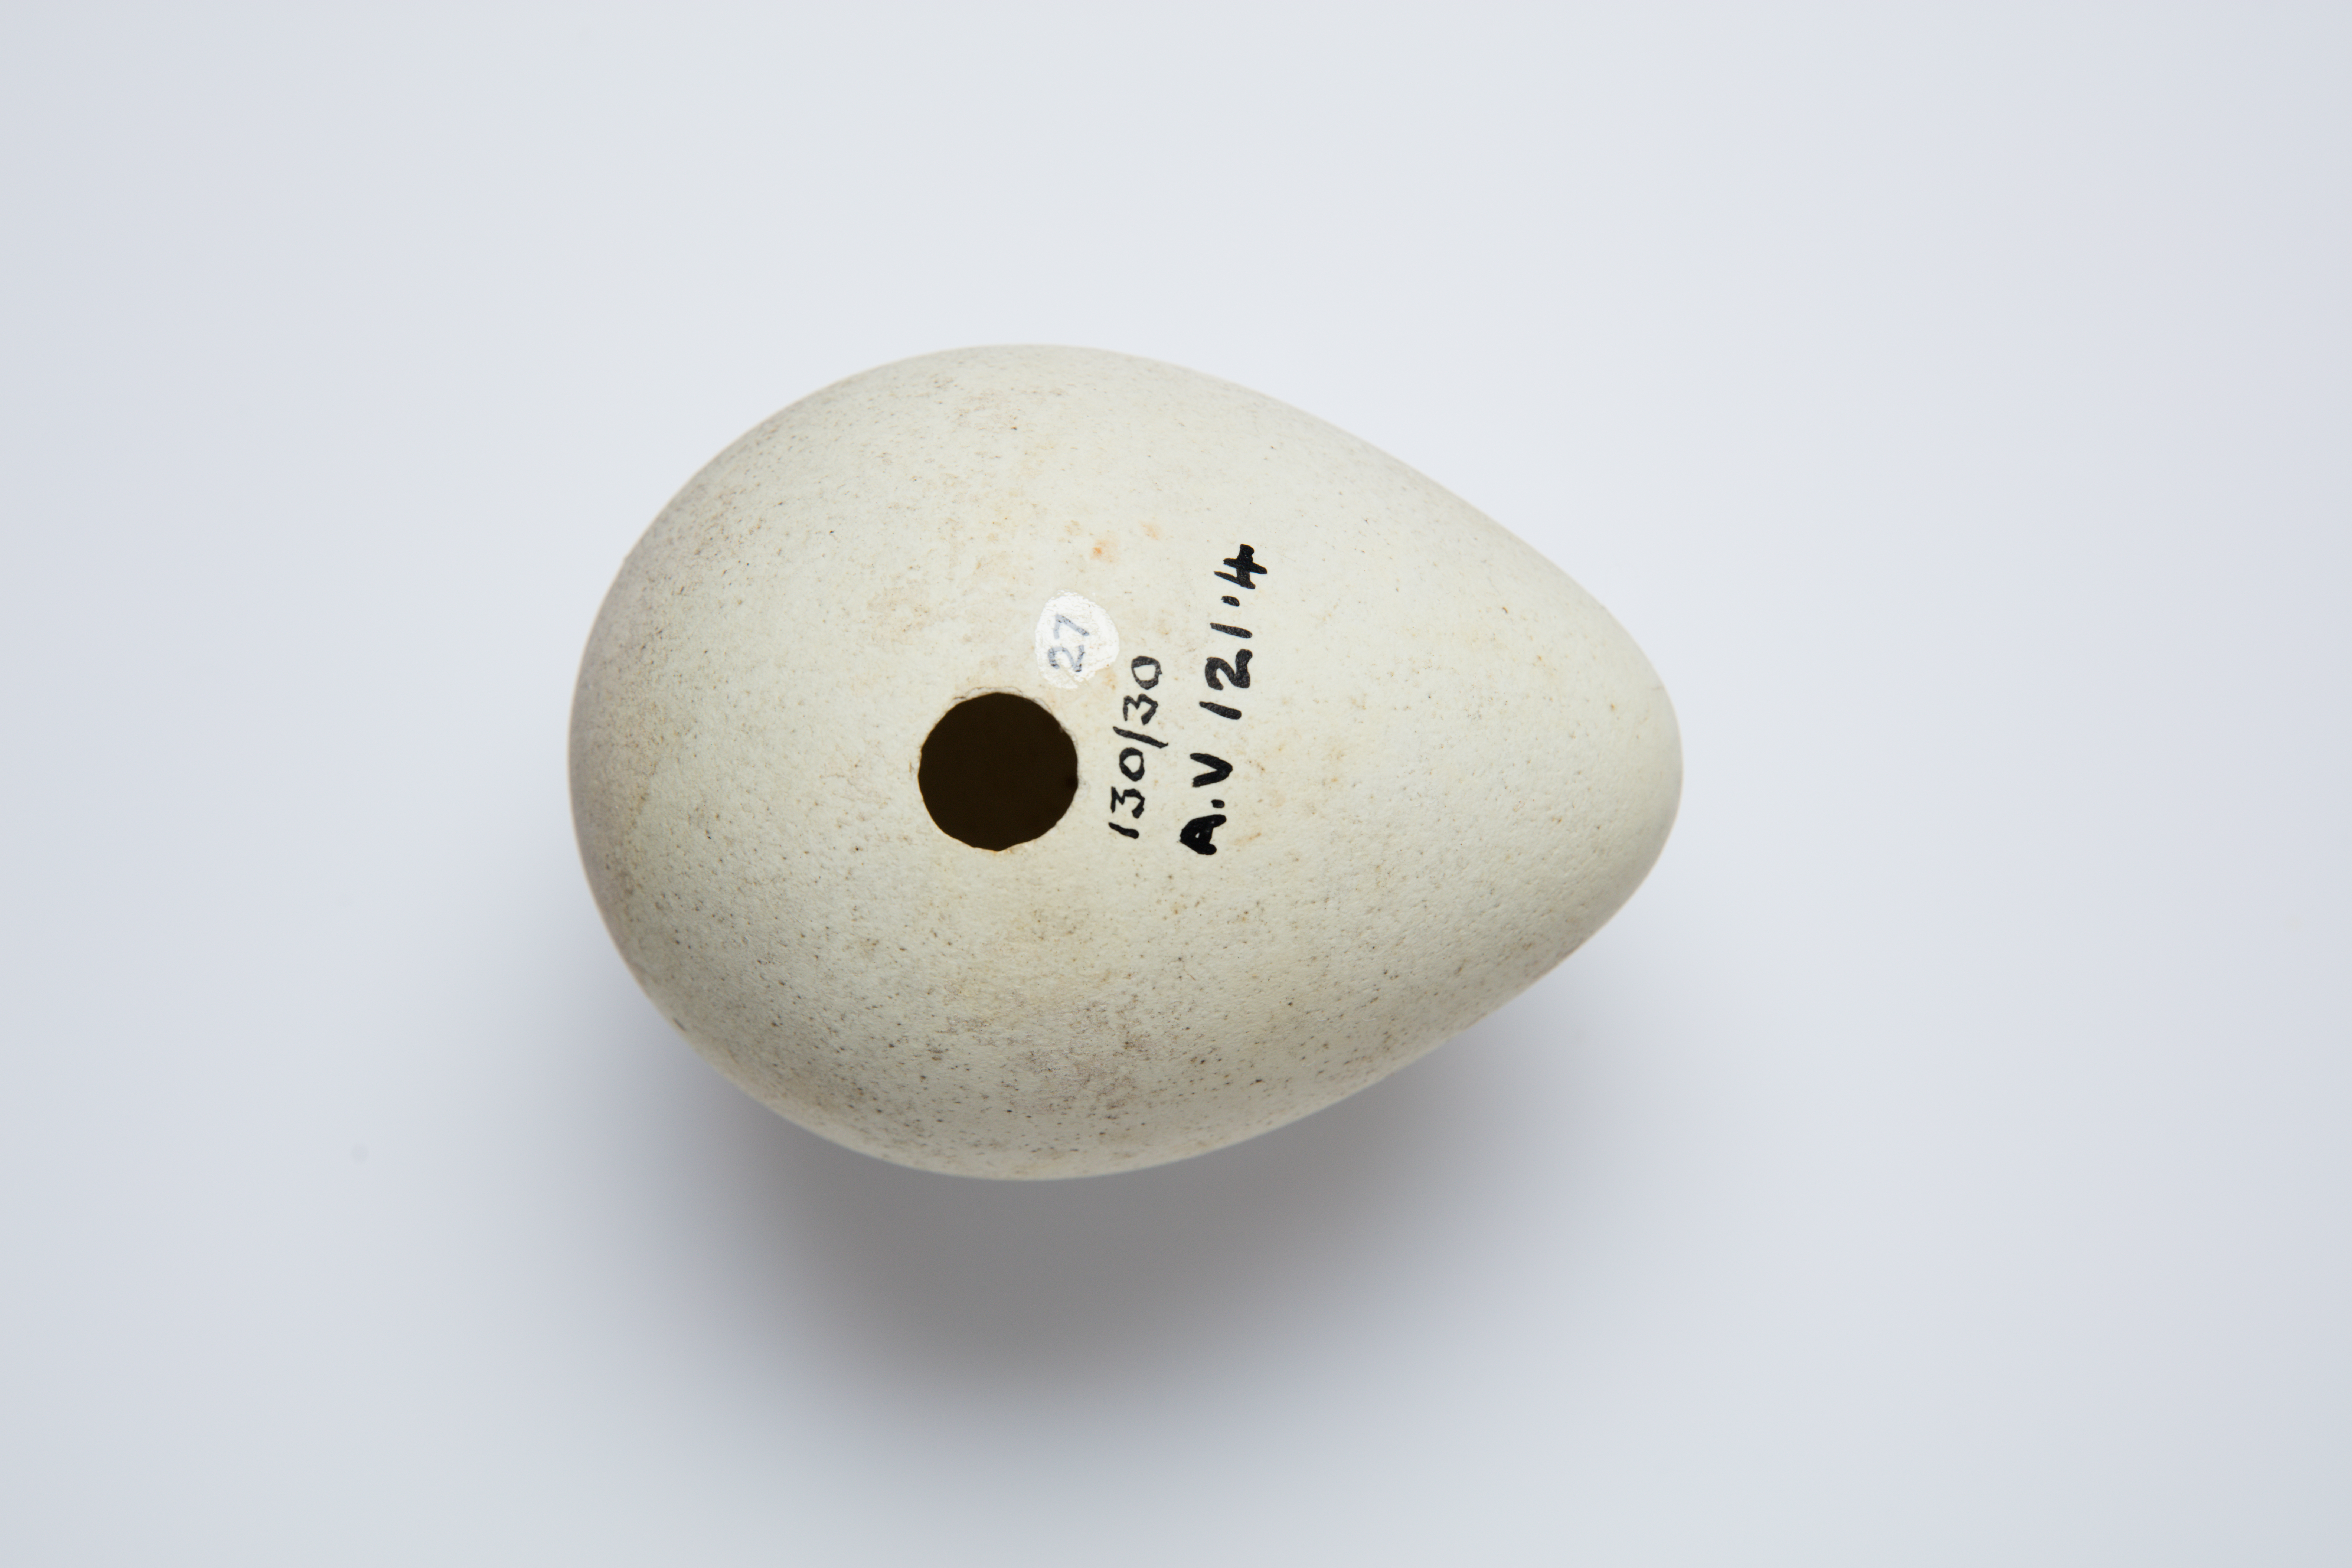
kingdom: Animalia
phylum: Chordata
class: Aves
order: Sphenisciformes
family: Spheniscidae
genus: Aptenodytes
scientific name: Aptenodytes patagonicus
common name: King penguin
